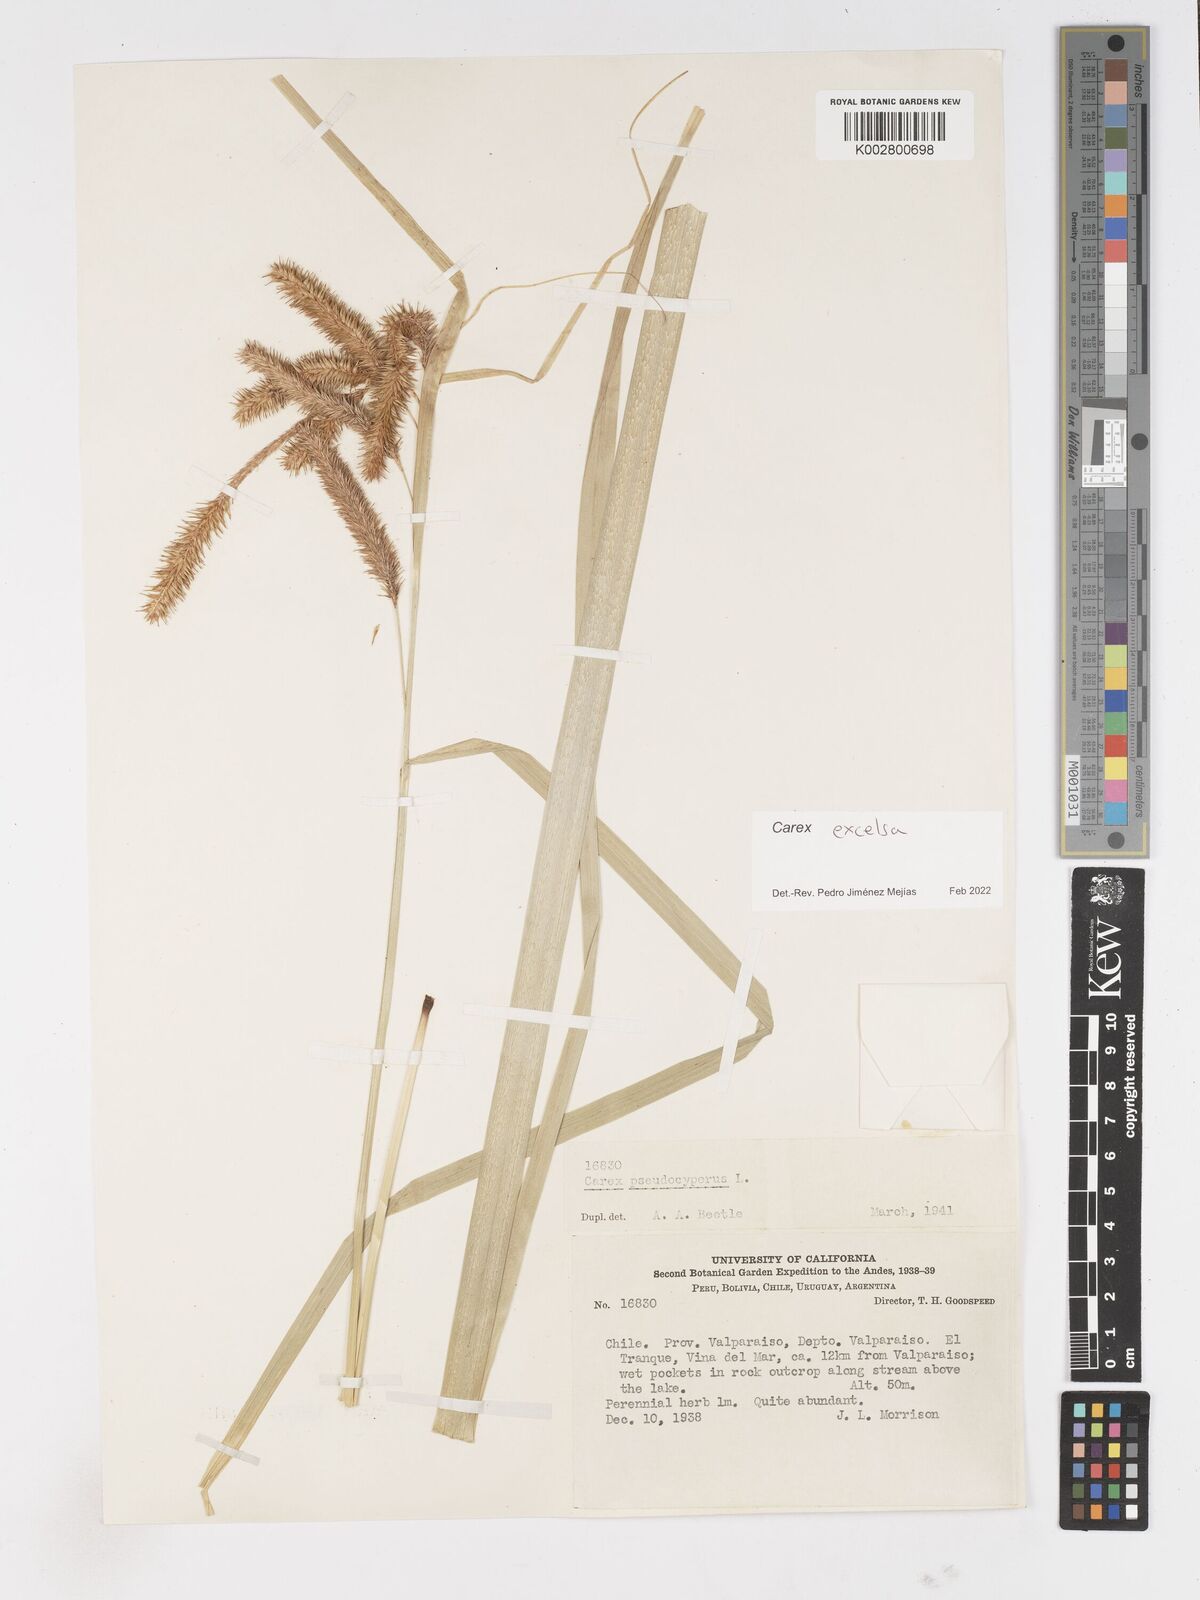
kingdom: Plantae
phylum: Tracheophyta
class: Liliopsida
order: Poales
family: Cyperaceae
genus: Carex
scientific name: Carex excelsa
